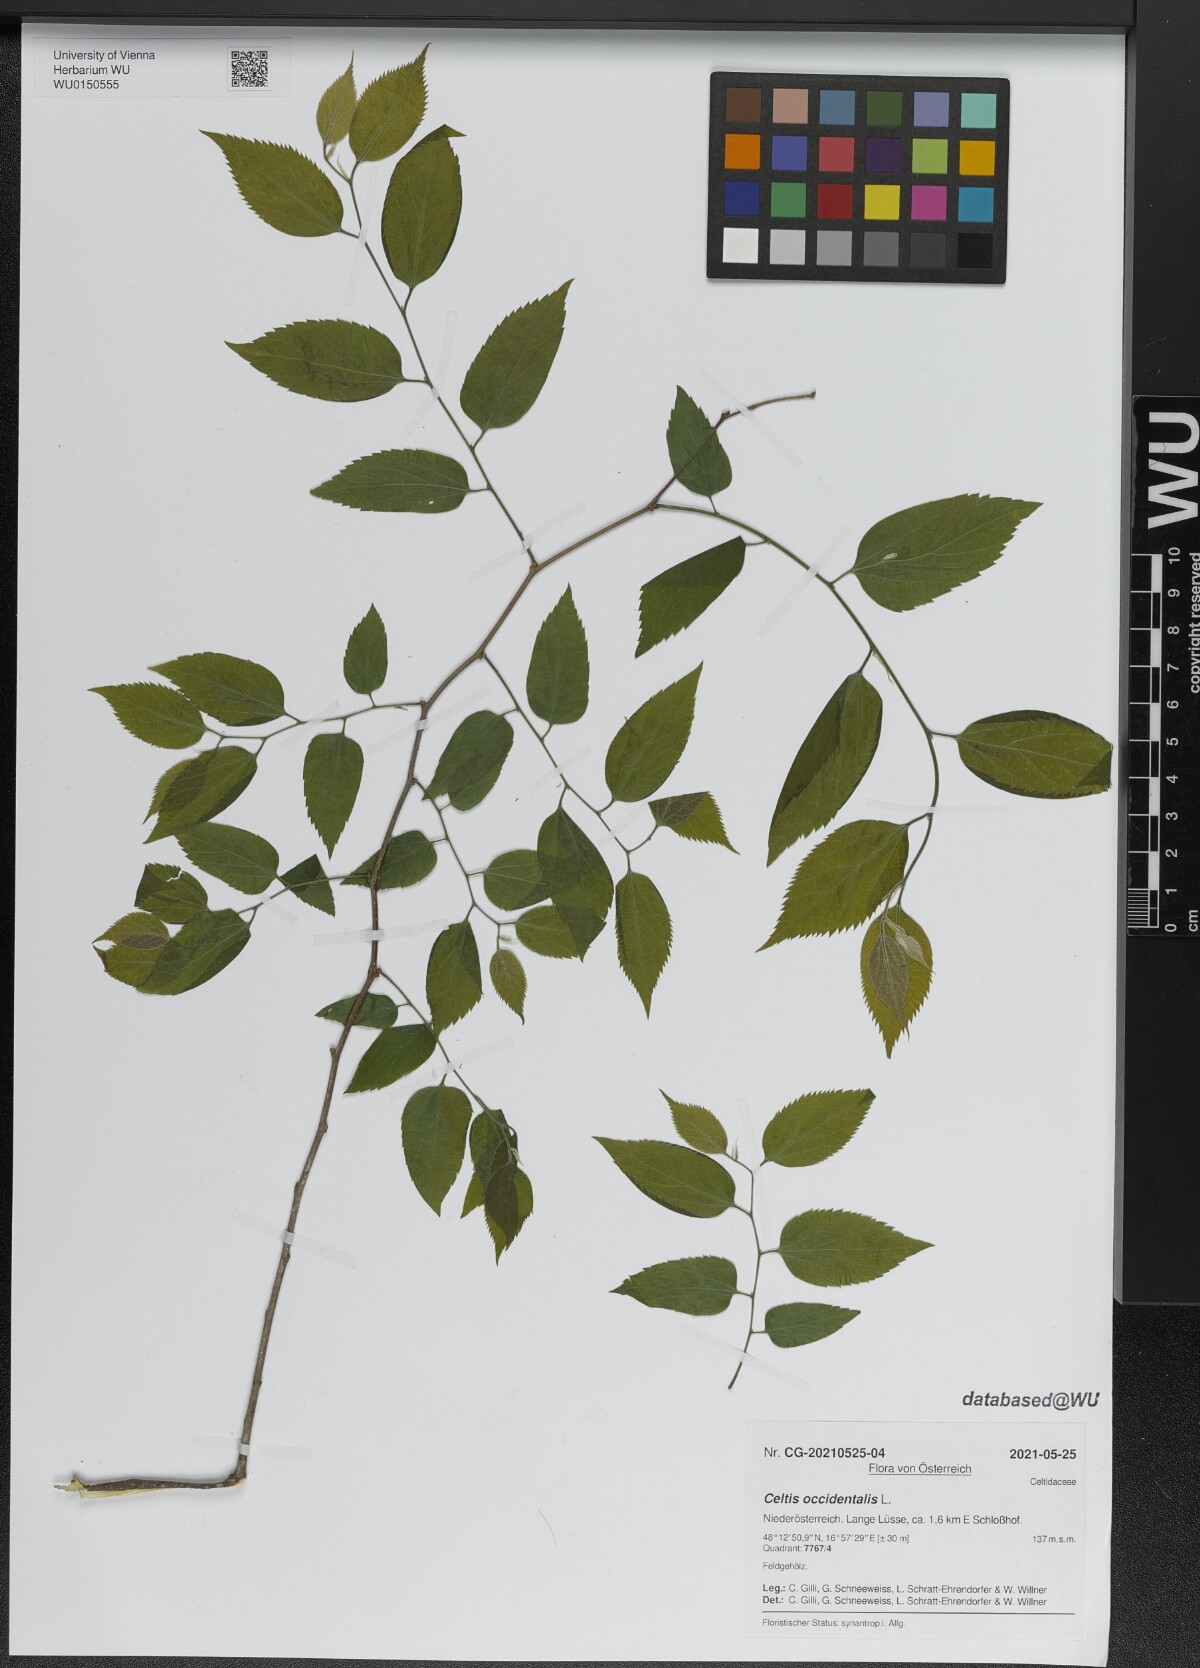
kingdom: Plantae
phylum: Tracheophyta
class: Magnoliopsida
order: Rosales
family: Cannabaceae
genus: Celtis
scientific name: Celtis occidentalis
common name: Common hackberry
